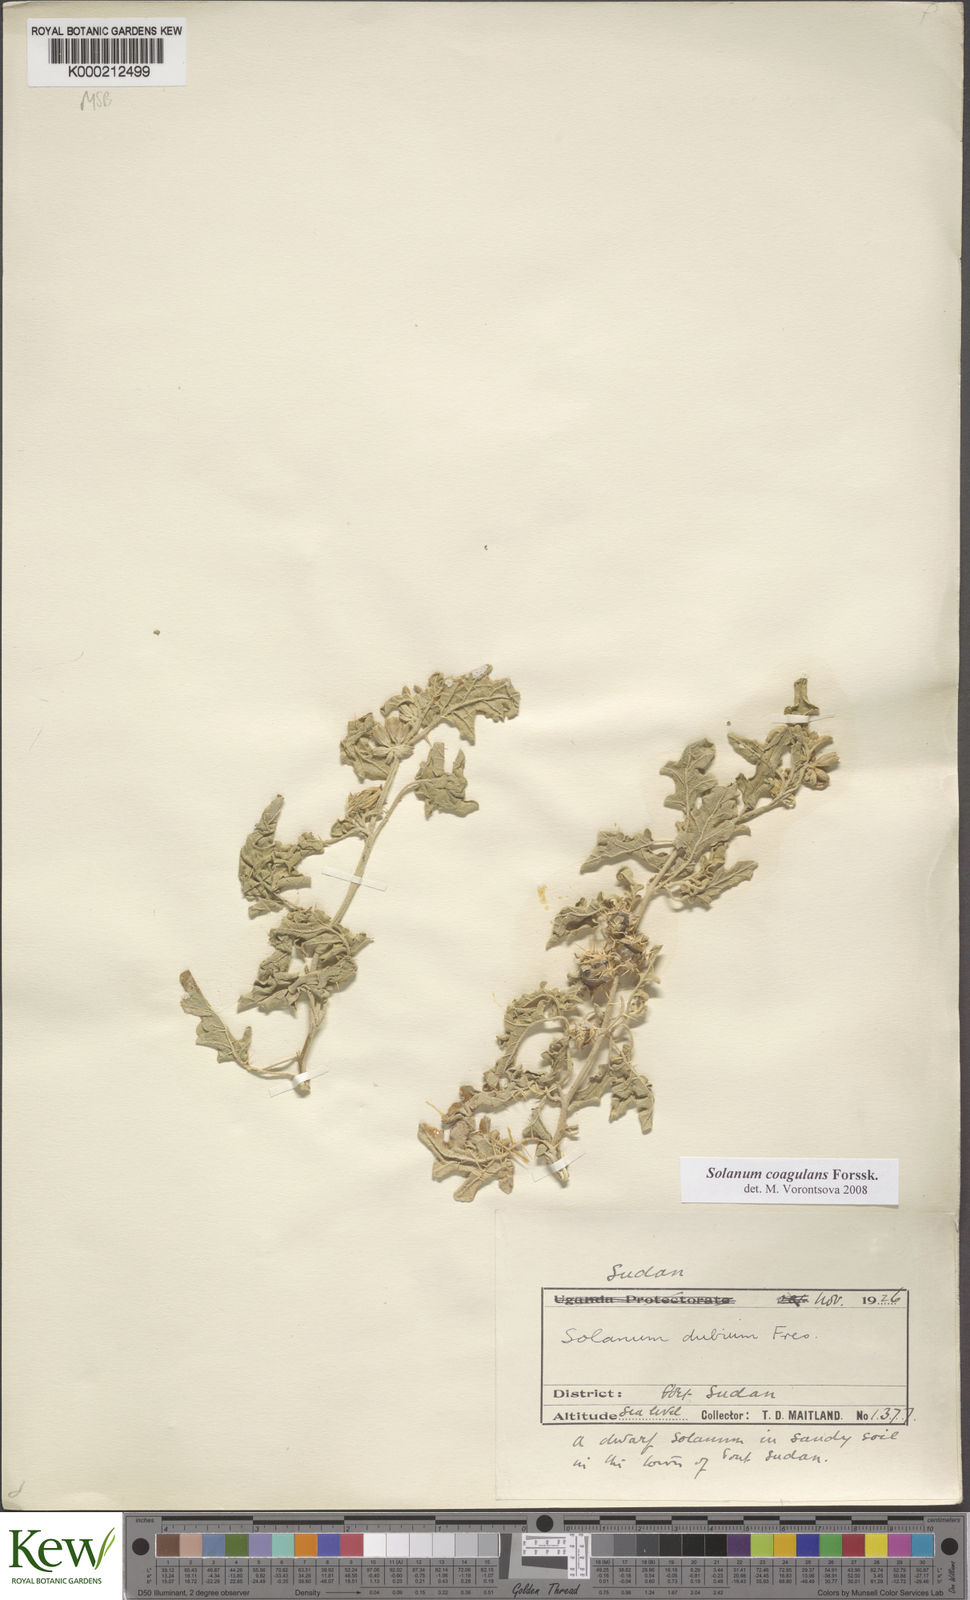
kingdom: Plantae
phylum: Tracheophyta
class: Magnoliopsida
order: Solanales
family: Solanaceae
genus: Solanum
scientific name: Solanum coagulans
